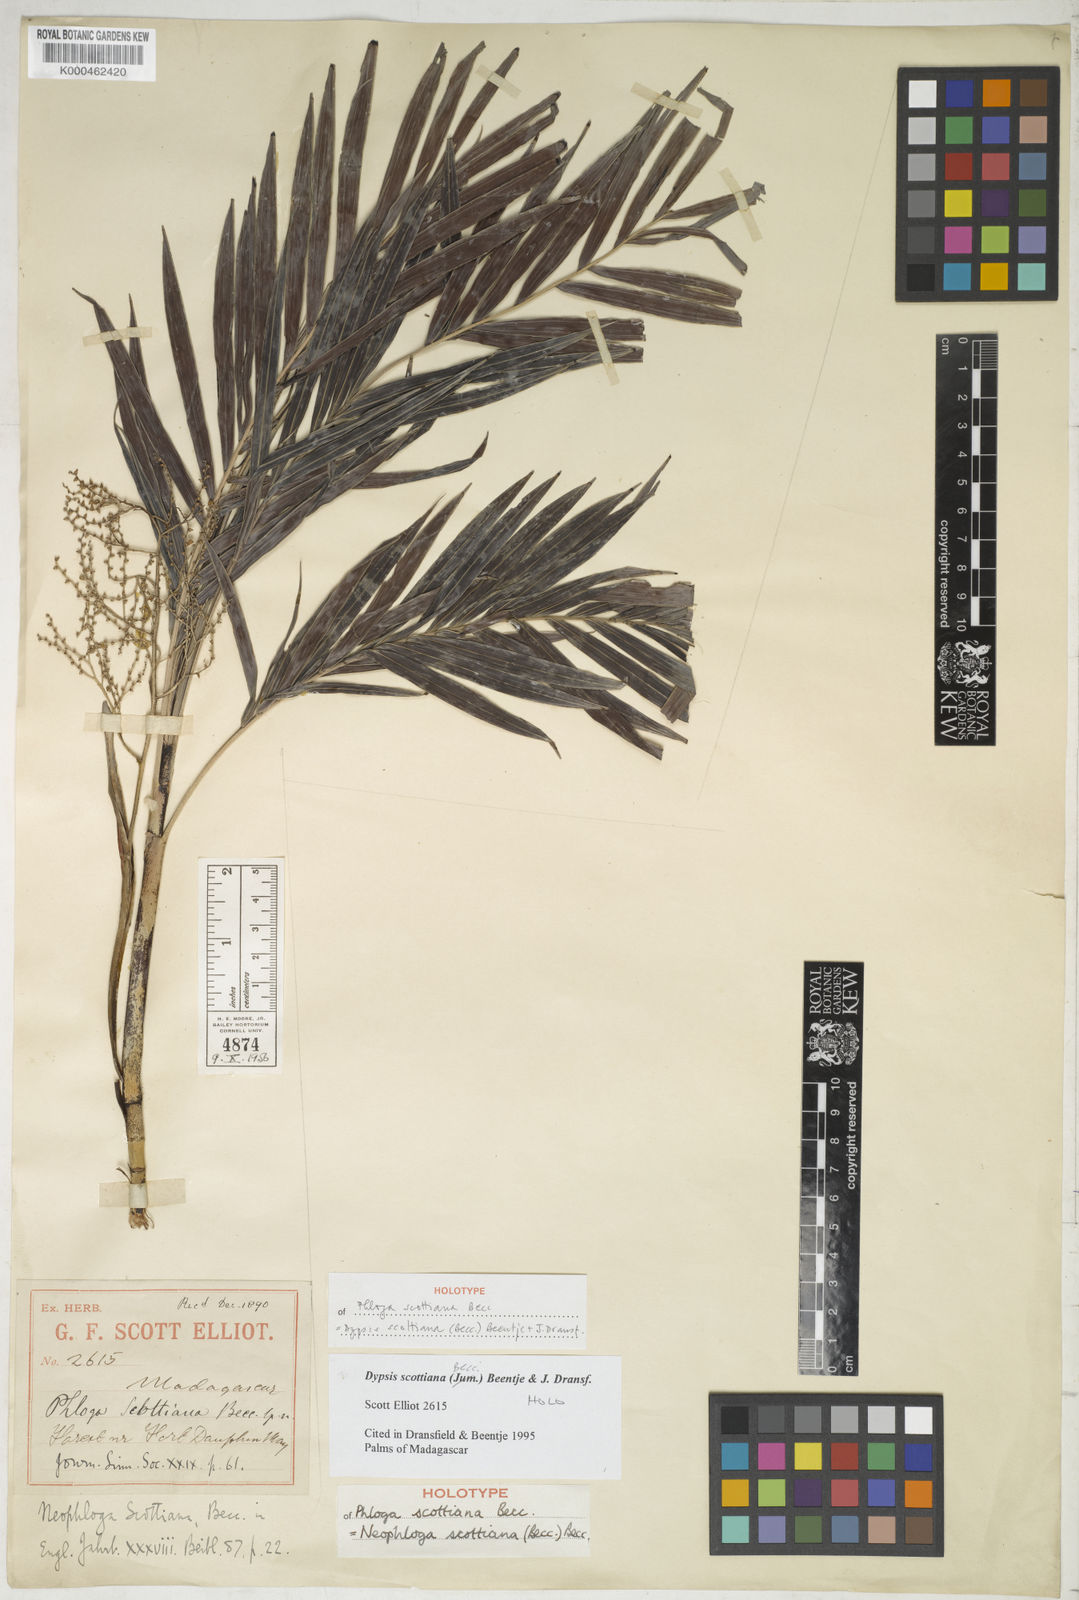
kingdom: Plantae
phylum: Tracheophyta
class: Liliopsida
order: Arecales
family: Arecaceae
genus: Dypsis
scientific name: Dypsis scottiana
